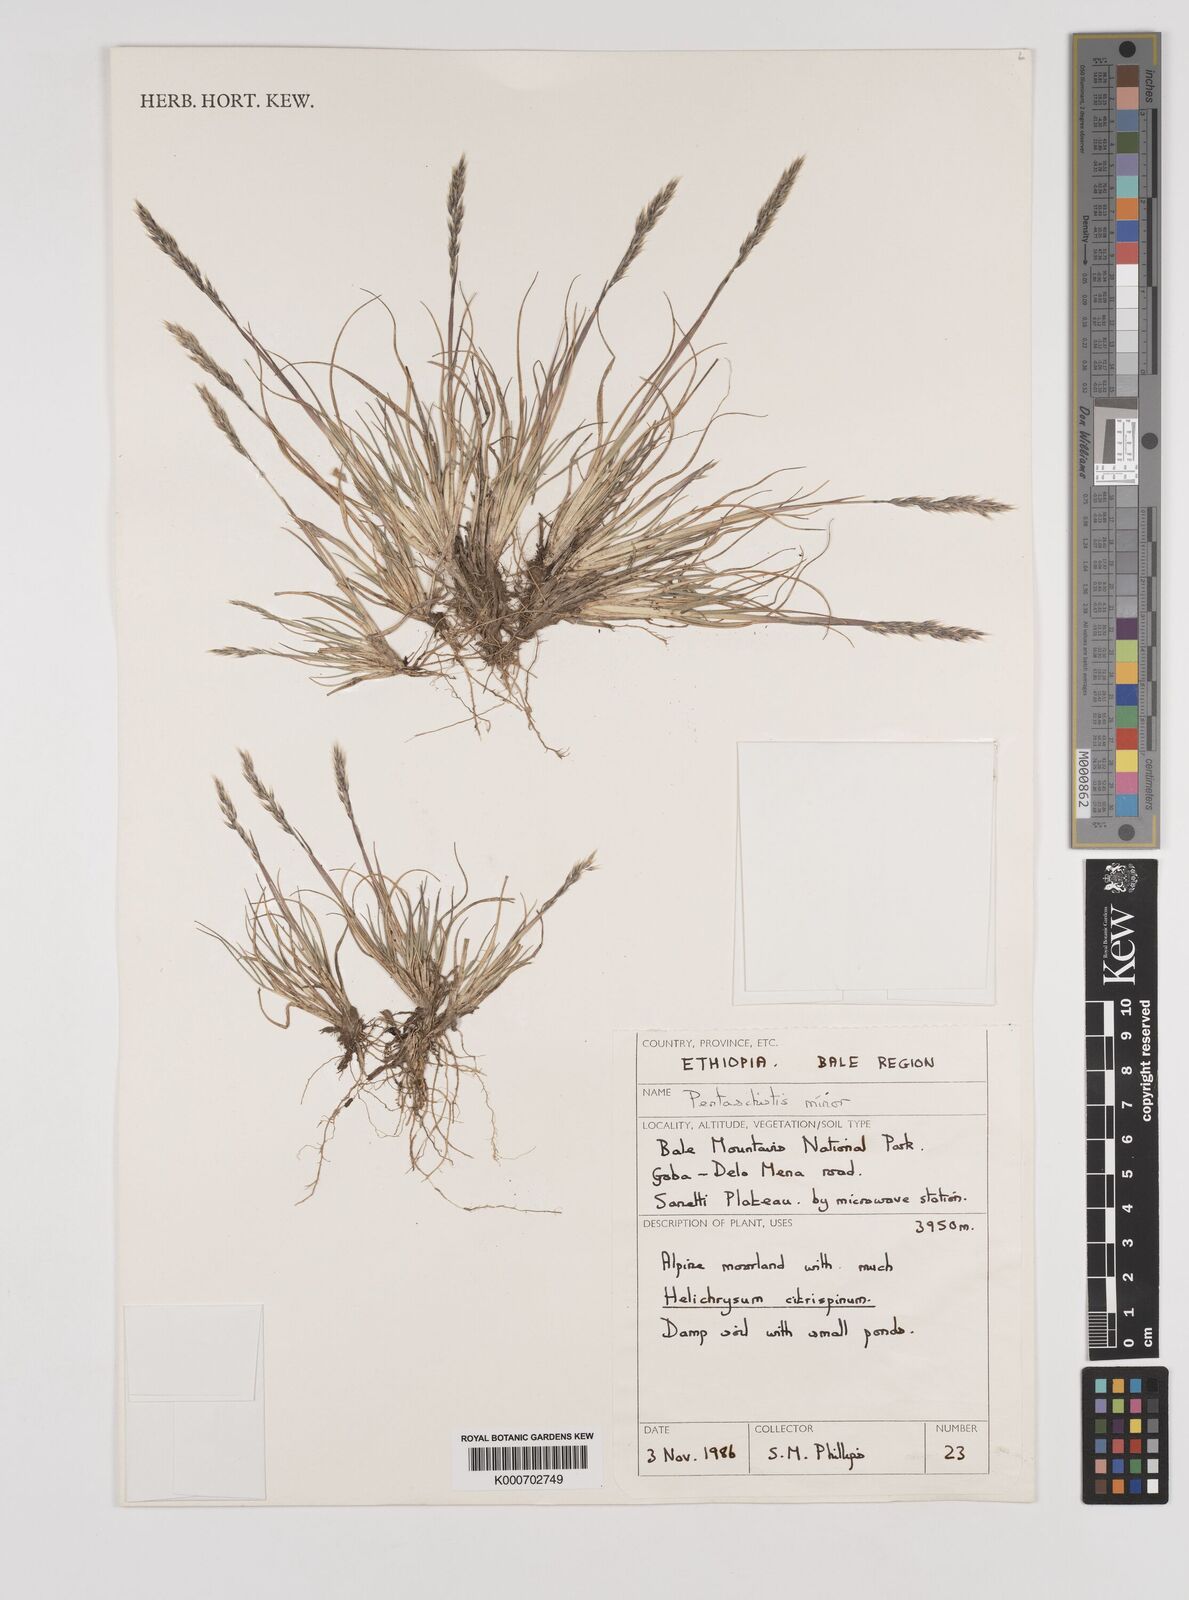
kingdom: Plantae
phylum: Tracheophyta
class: Liliopsida
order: Poales
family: Poaceae
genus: Pentameris
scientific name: Pentameris minor
